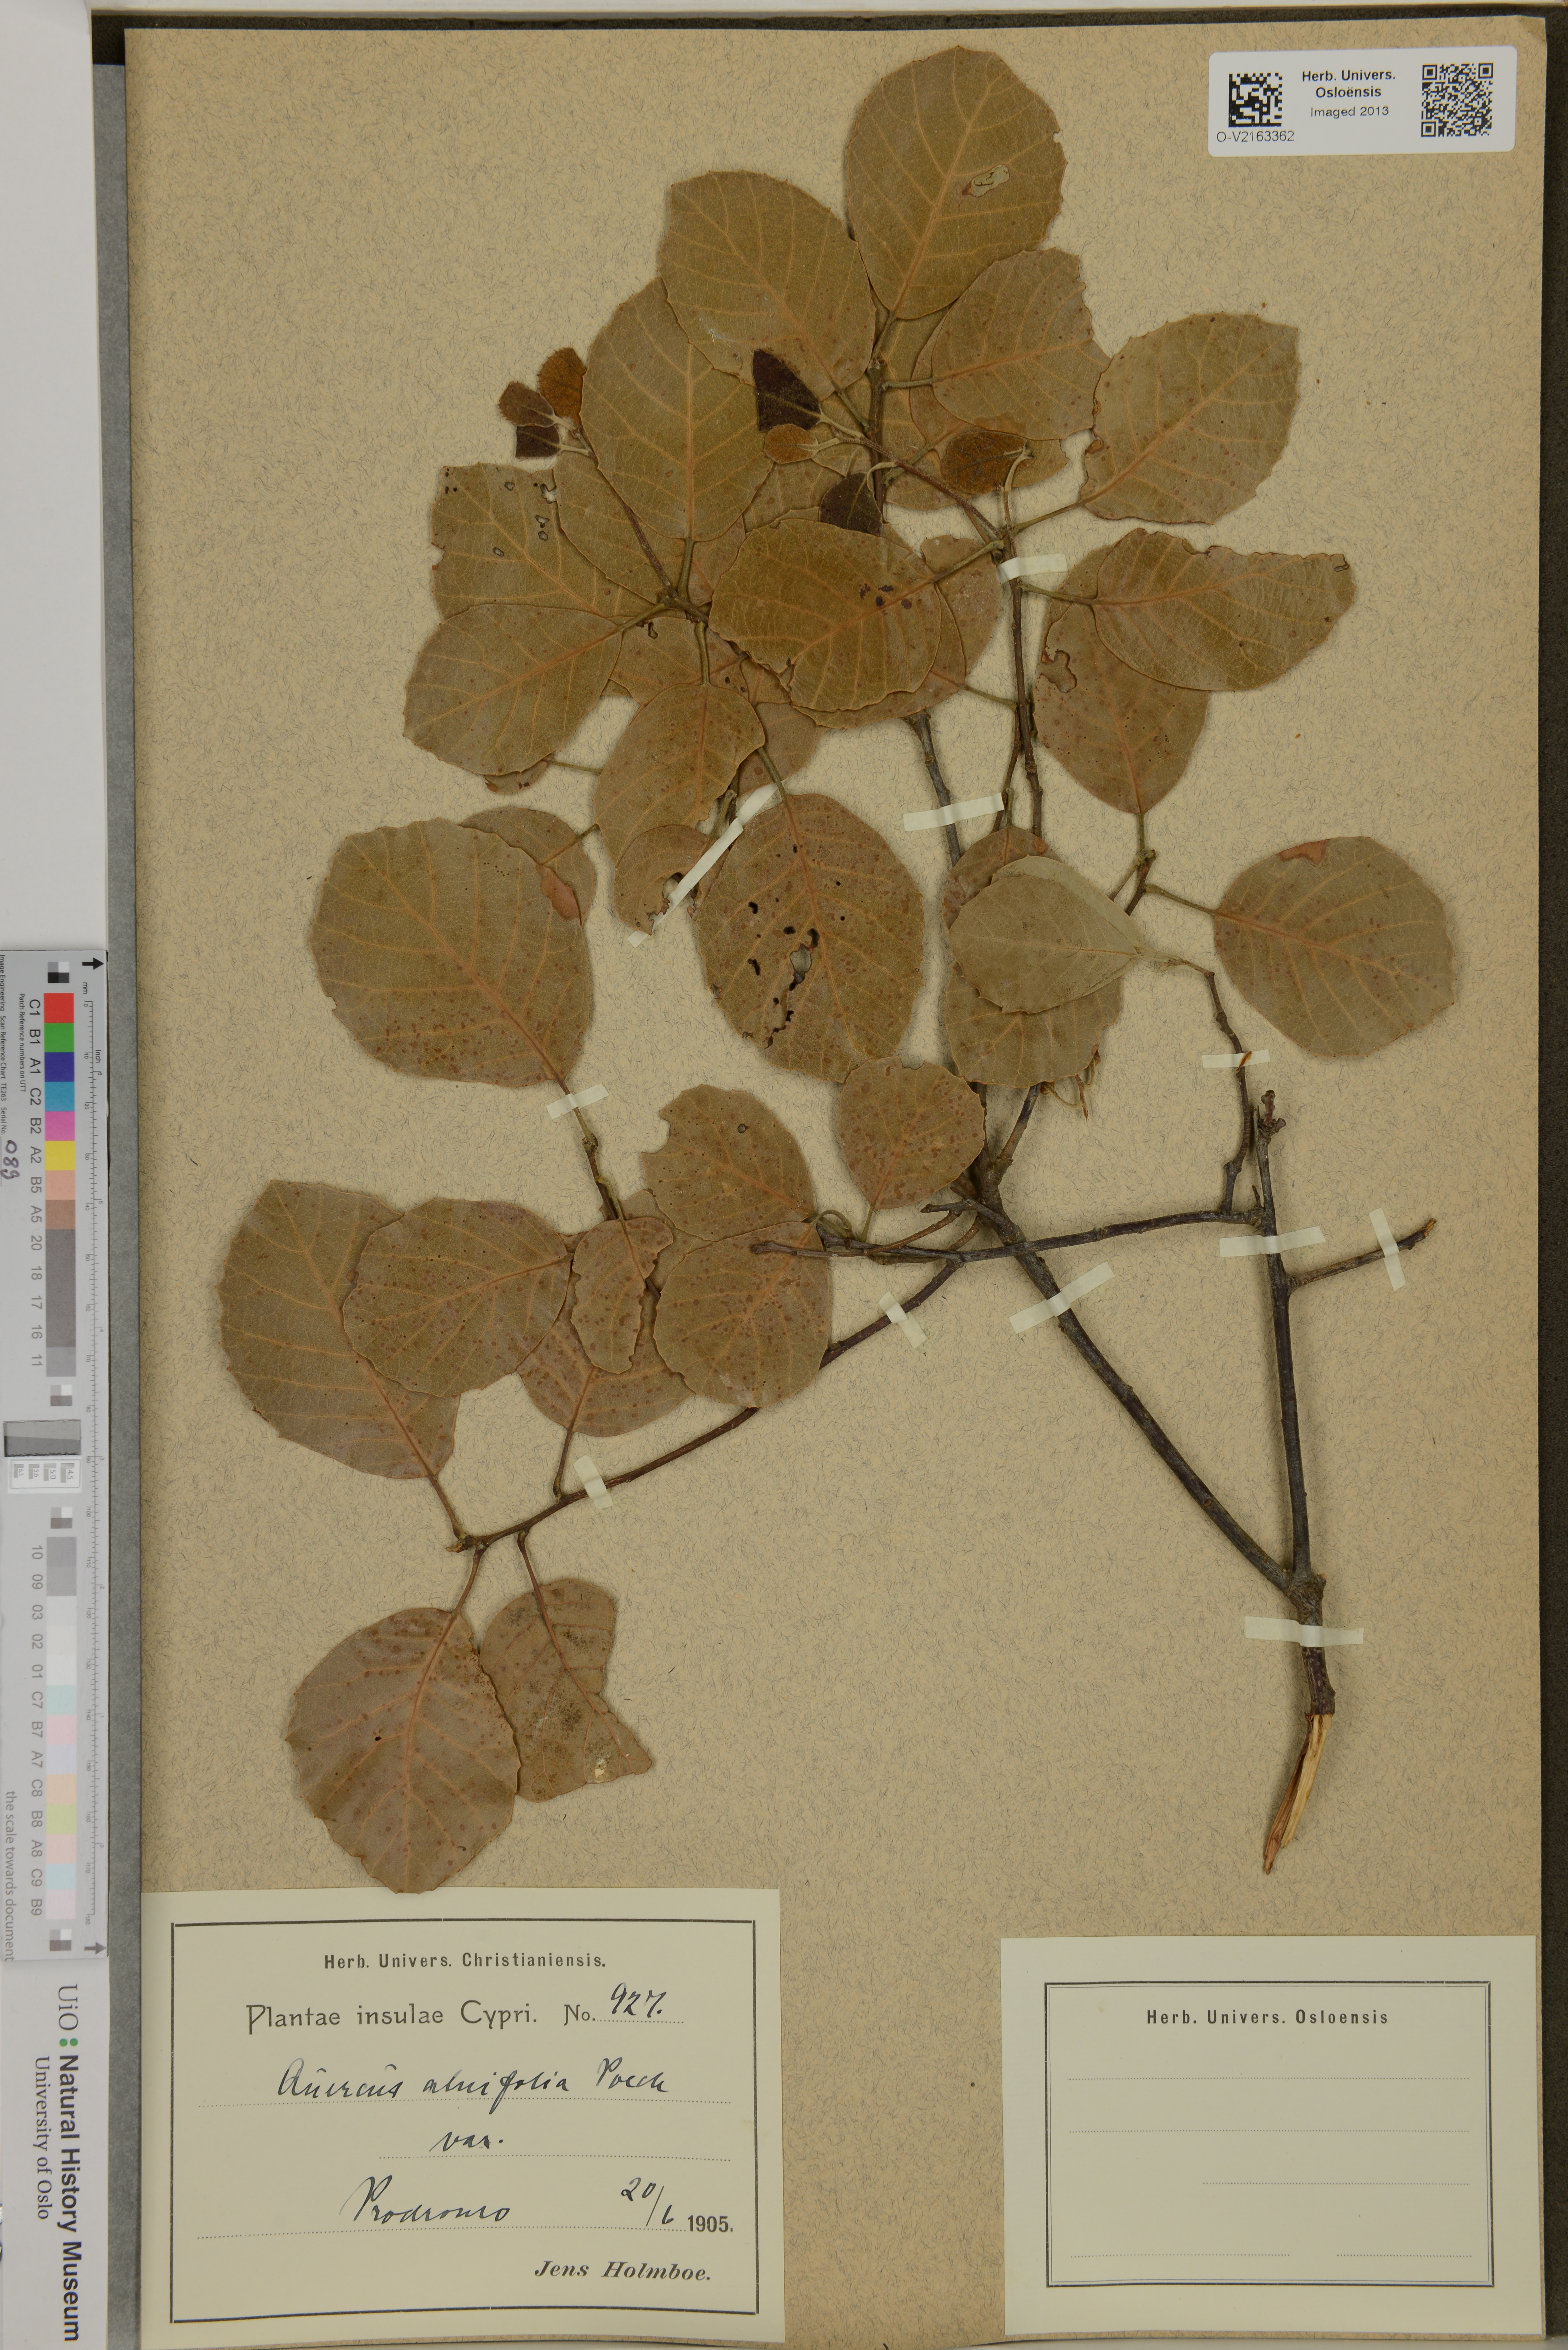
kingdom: Plantae
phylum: Tracheophyta
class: Magnoliopsida
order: Fagales
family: Fagaceae
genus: Quercus
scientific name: Quercus alnifolia
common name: Golden oak
